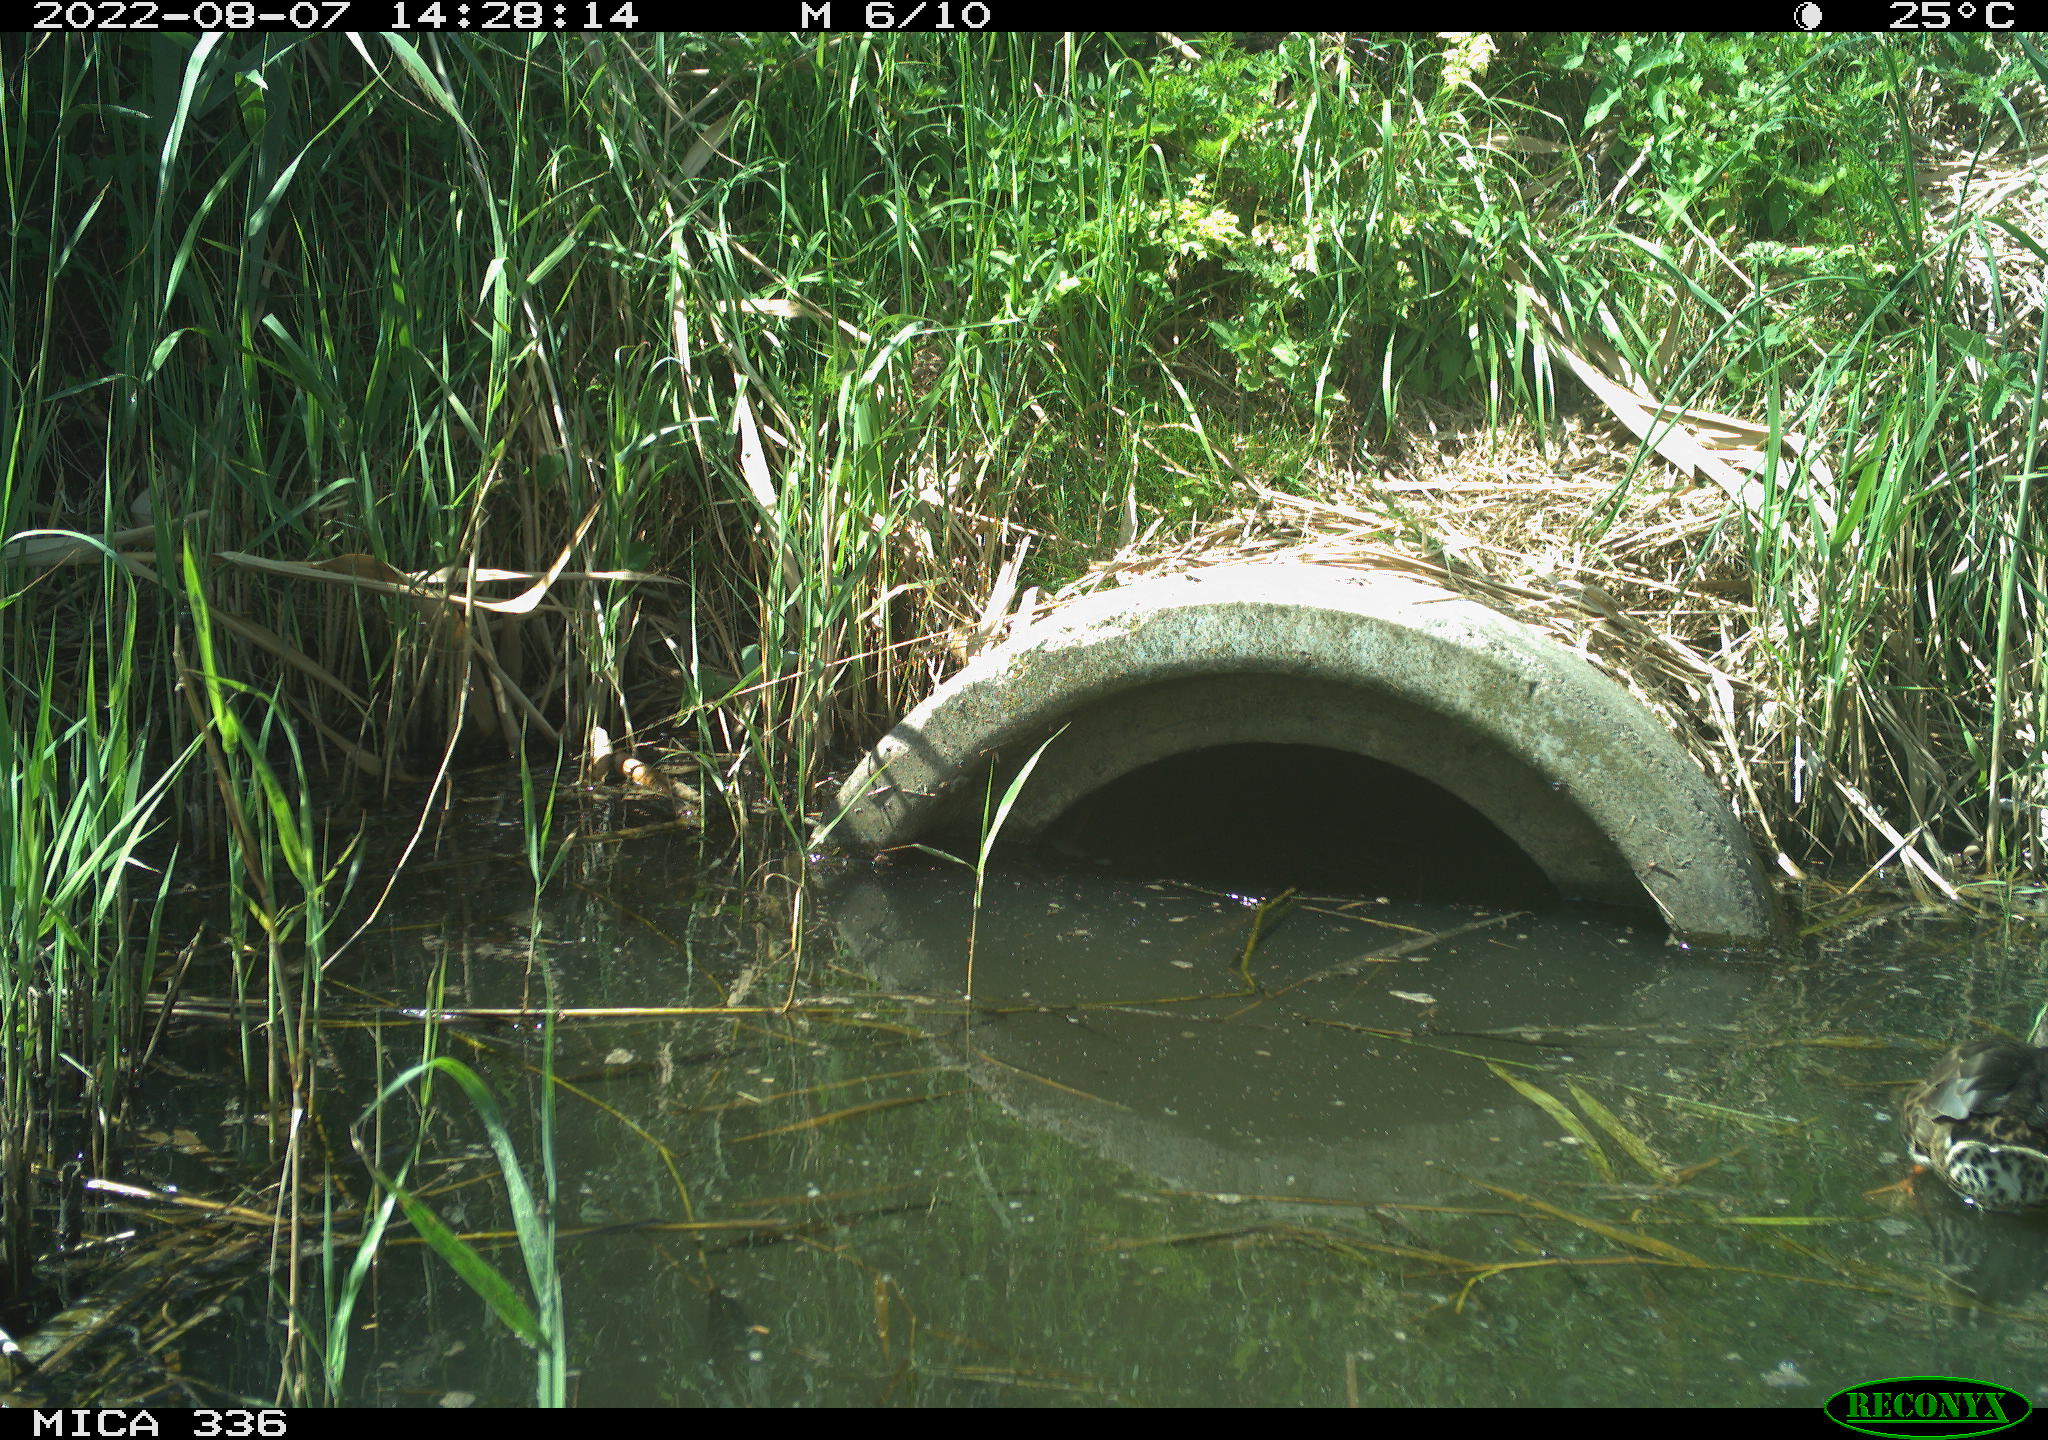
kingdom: Animalia
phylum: Chordata
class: Aves
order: Anseriformes
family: Anatidae
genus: Anas
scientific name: Anas platyrhynchos
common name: Mallard
